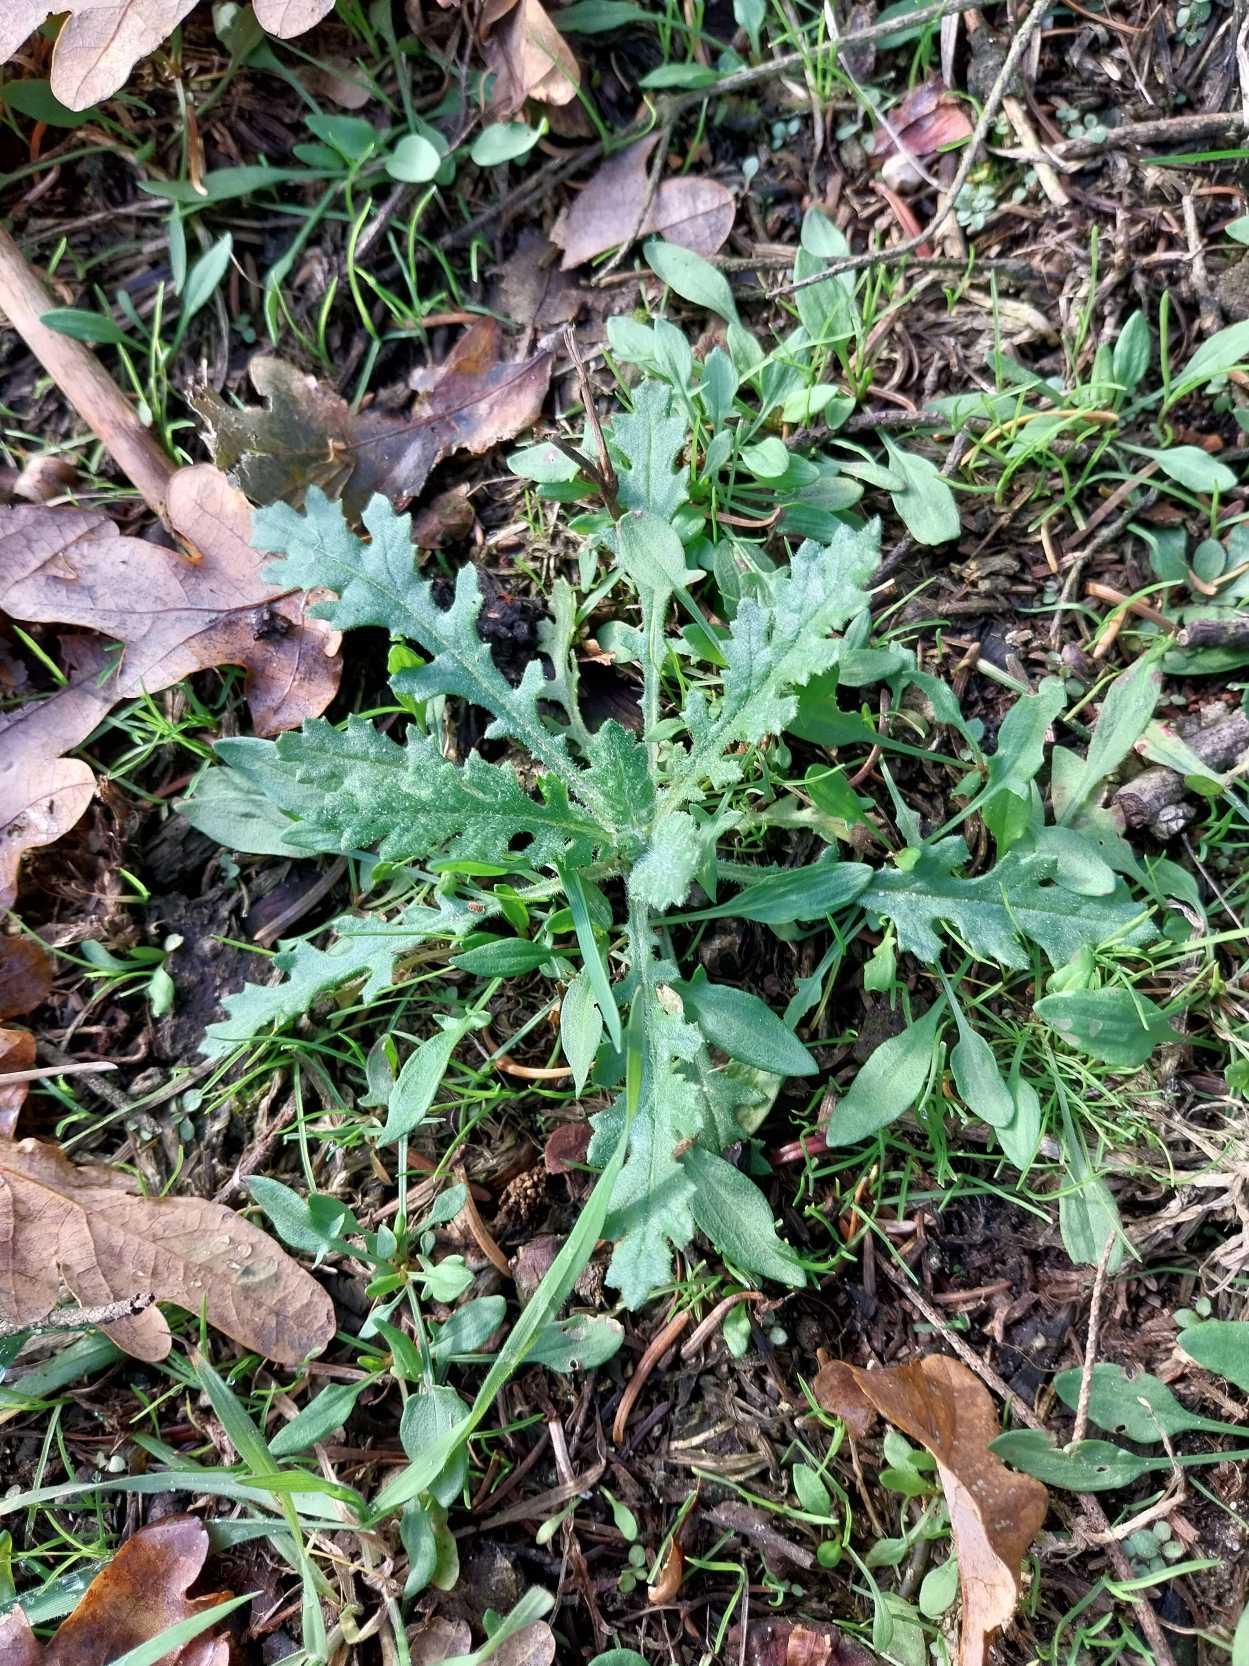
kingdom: Plantae
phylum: Tracheophyta
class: Magnoliopsida
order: Asterales
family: Asteraceae
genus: Senecio
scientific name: Senecio sylvaticus
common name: Skov-brandbæger
